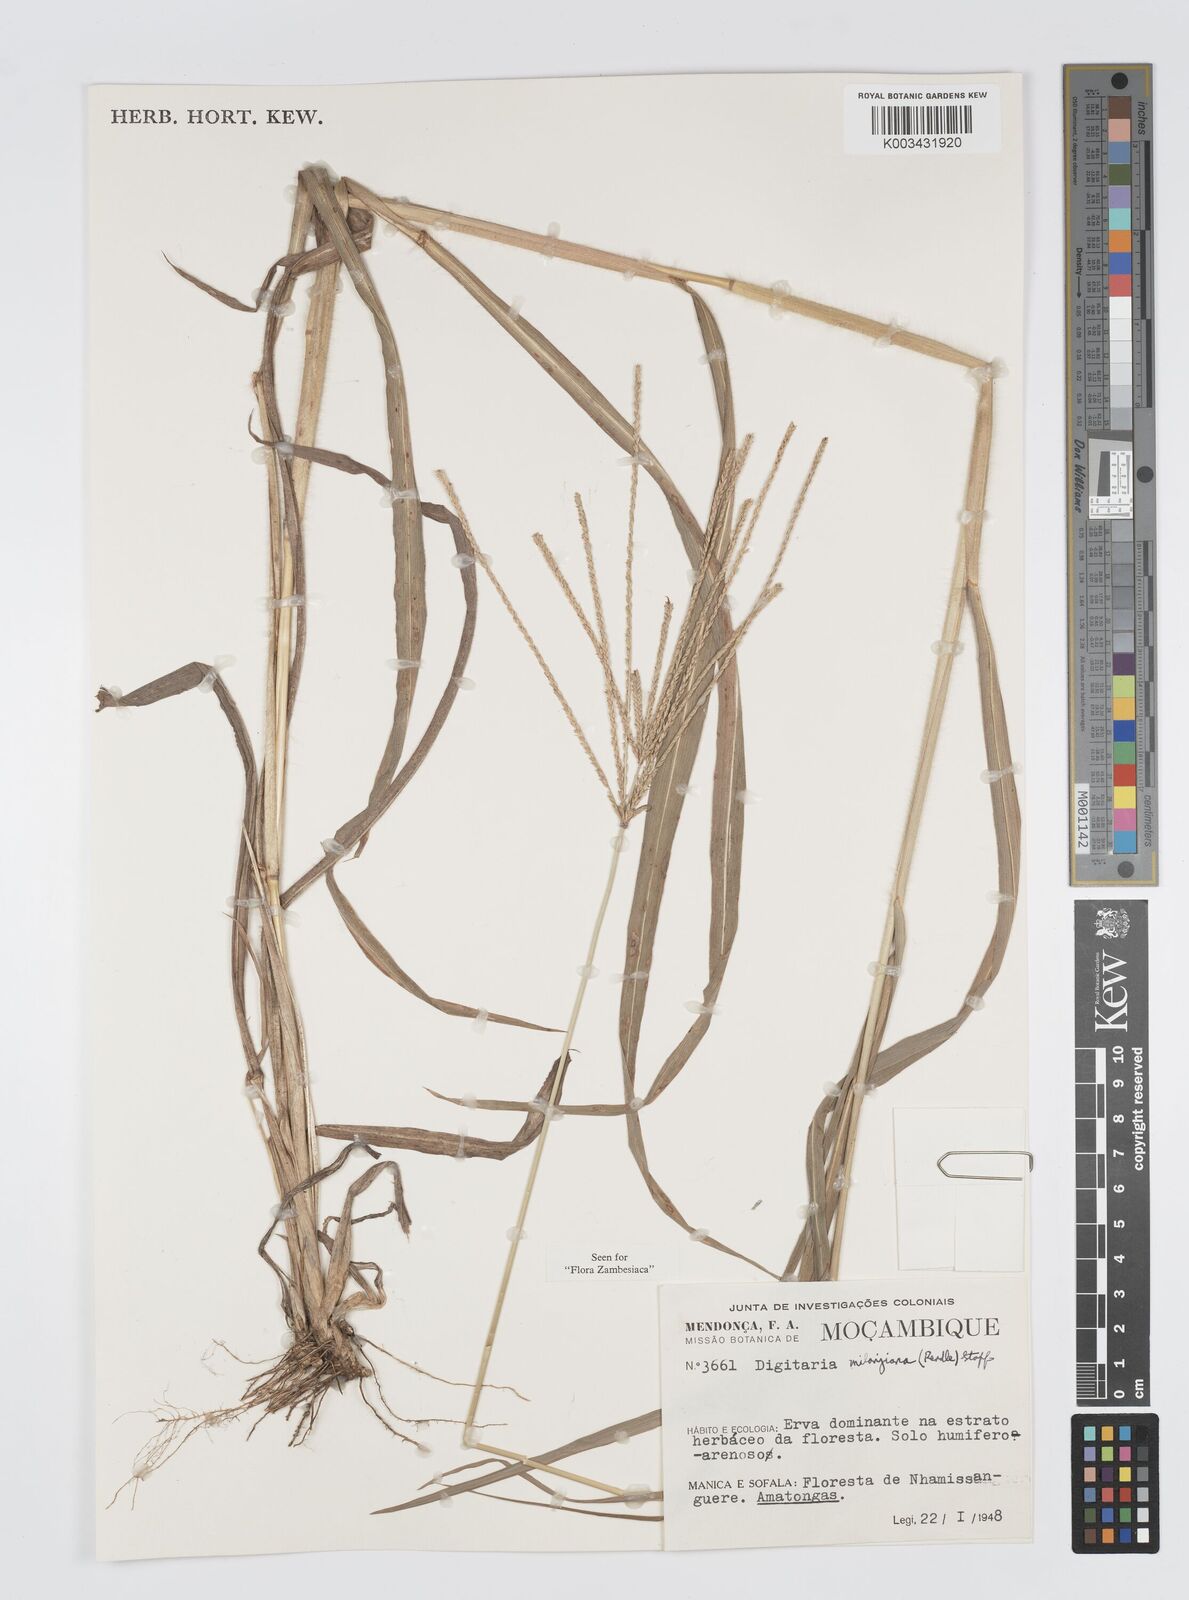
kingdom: Plantae
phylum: Tracheophyta
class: Liliopsida
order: Poales
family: Poaceae
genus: Digitaria
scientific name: Digitaria milanjiana
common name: Madagascar crabgrass
